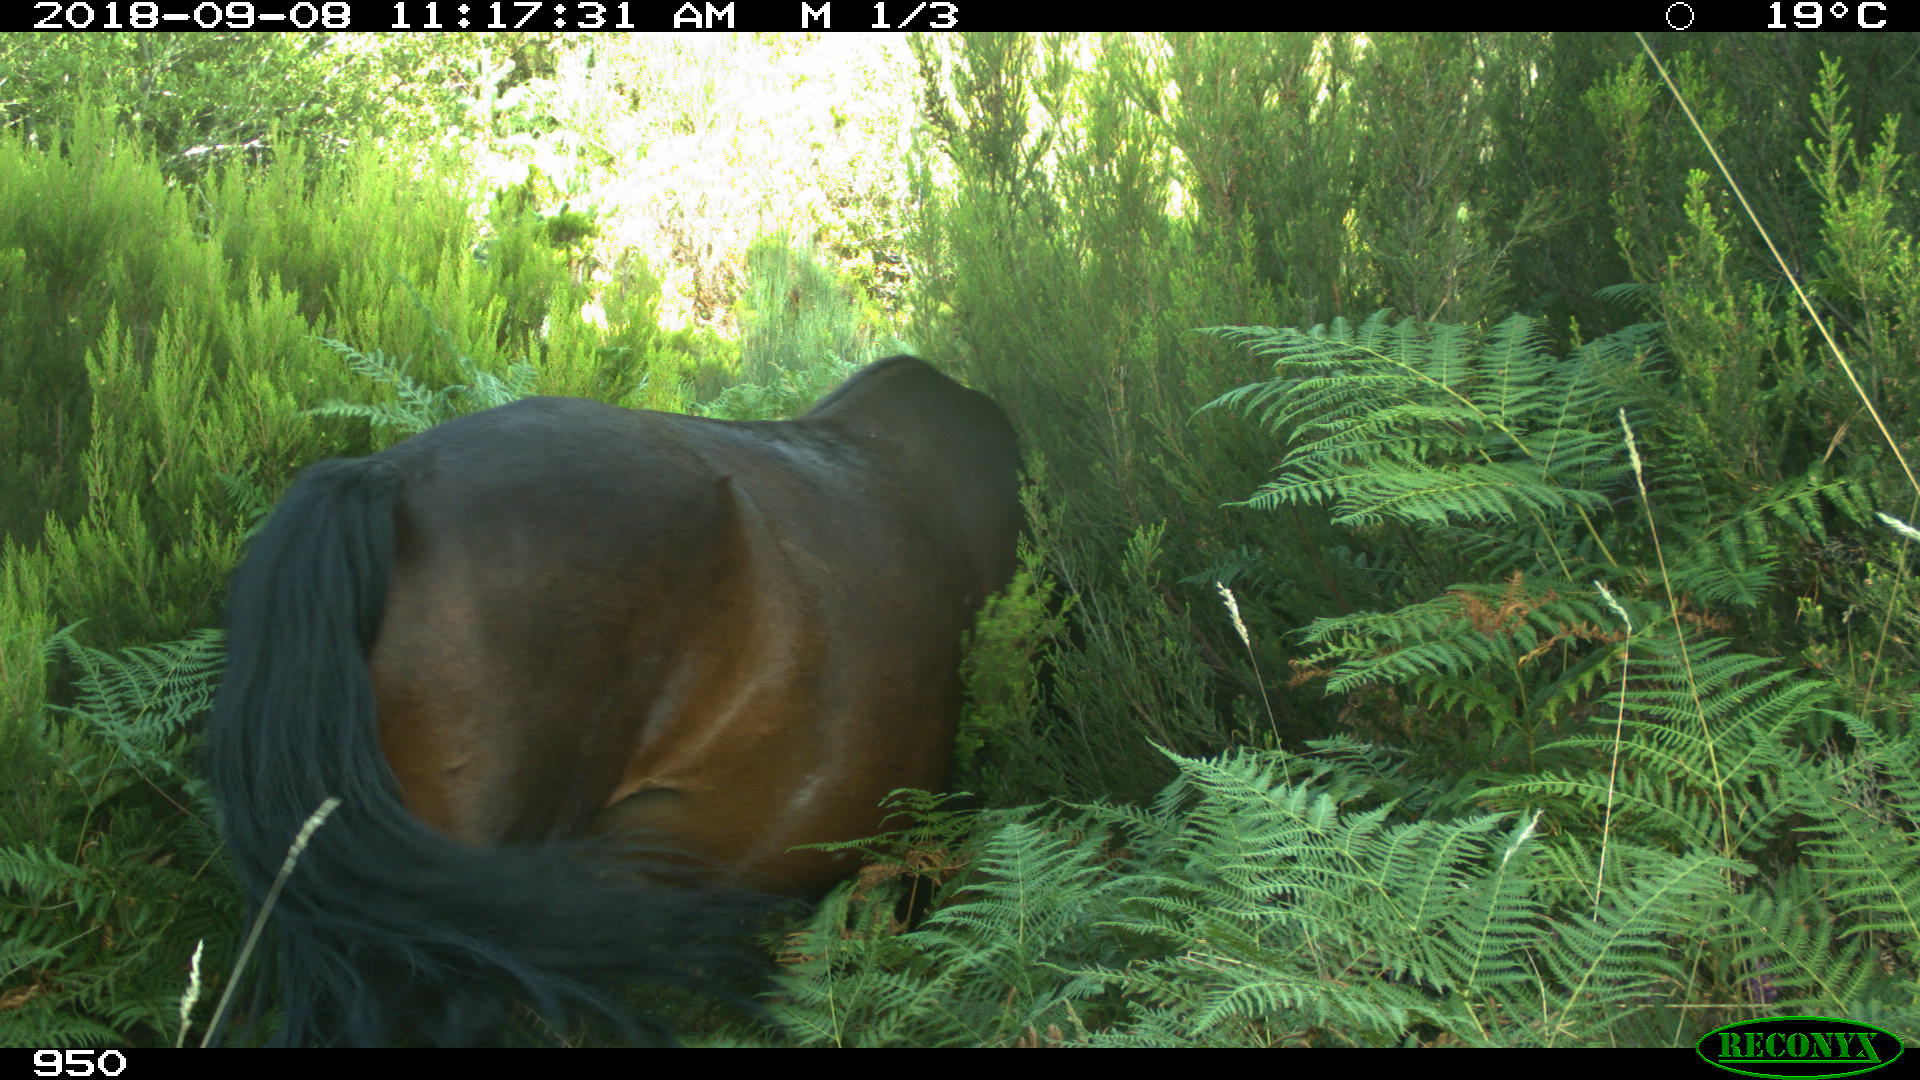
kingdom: Animalia
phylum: Chordata
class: Mammalia
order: Perissodactyla
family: Equidae
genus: Equus
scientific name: Equus caballus
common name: Horse
